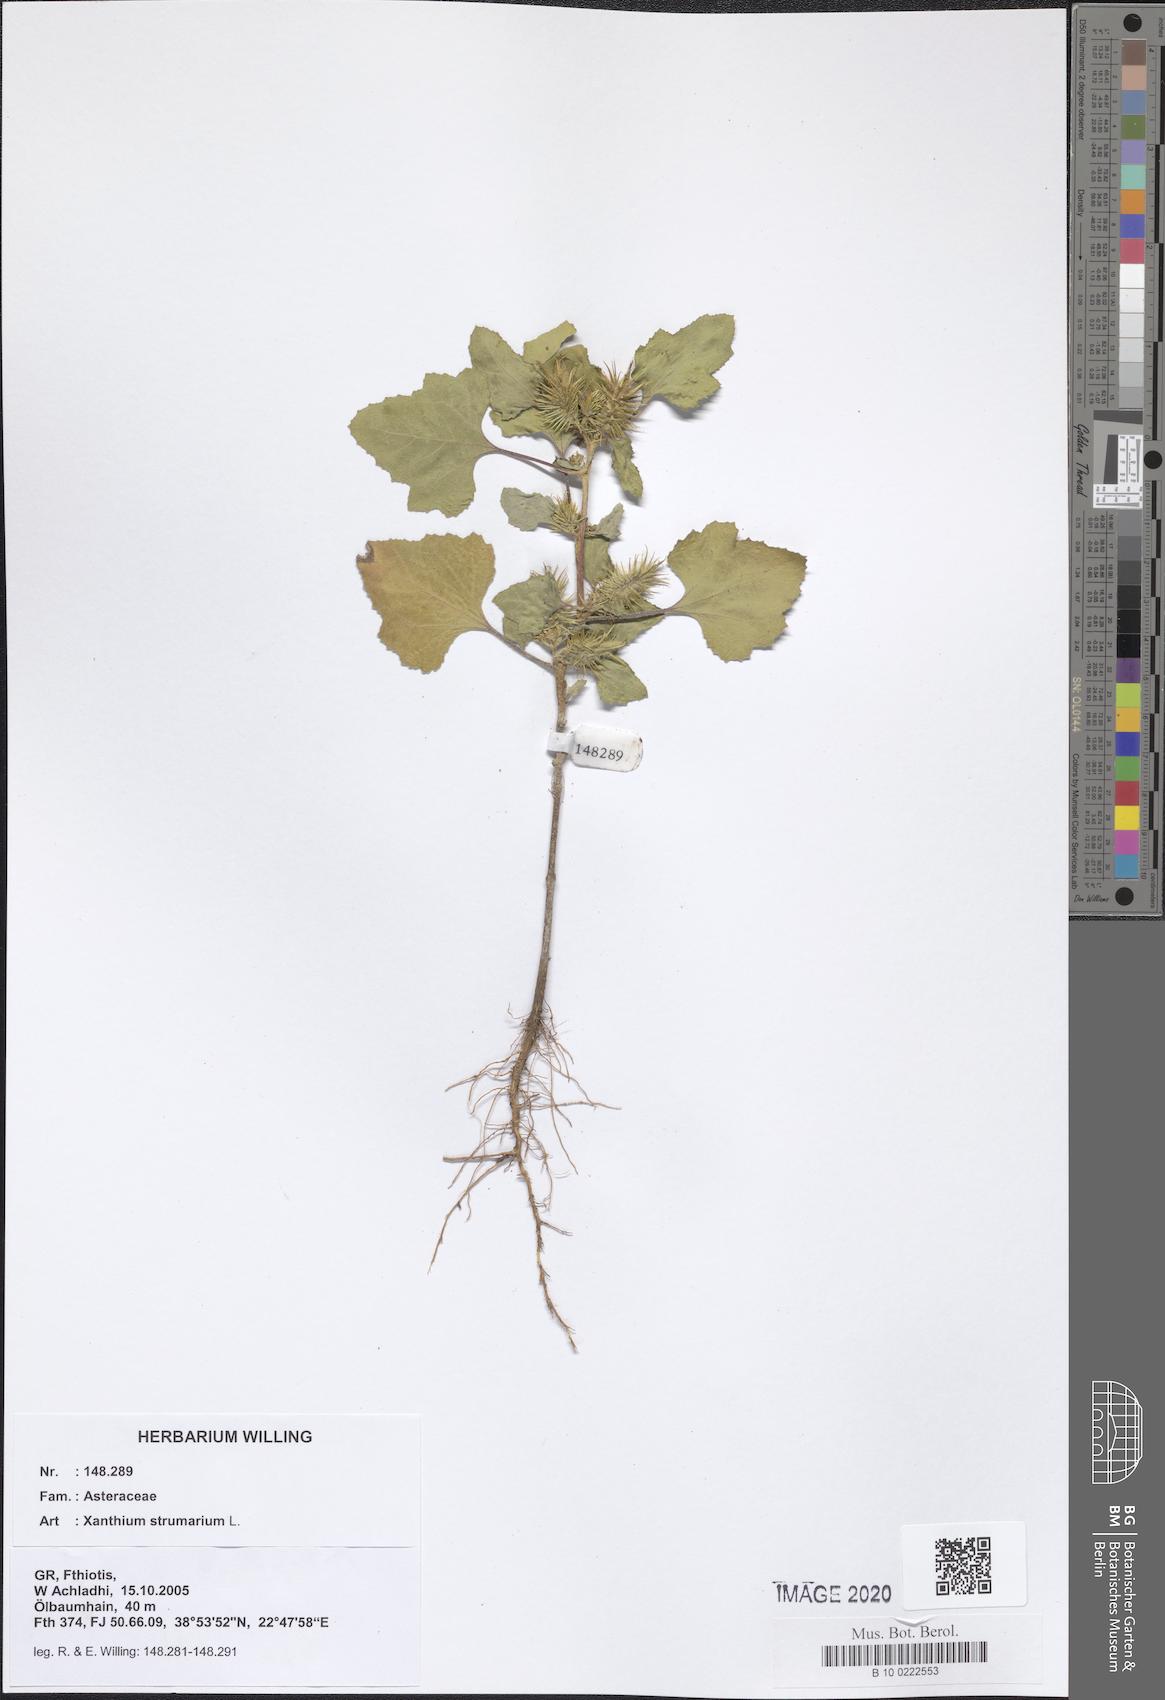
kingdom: Plantae
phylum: Tracheophyta
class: Magnoliopsida
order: Asterales
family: Asteraceae
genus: Xanthium
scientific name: Xanthium strumarium
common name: Rough cocklebur
